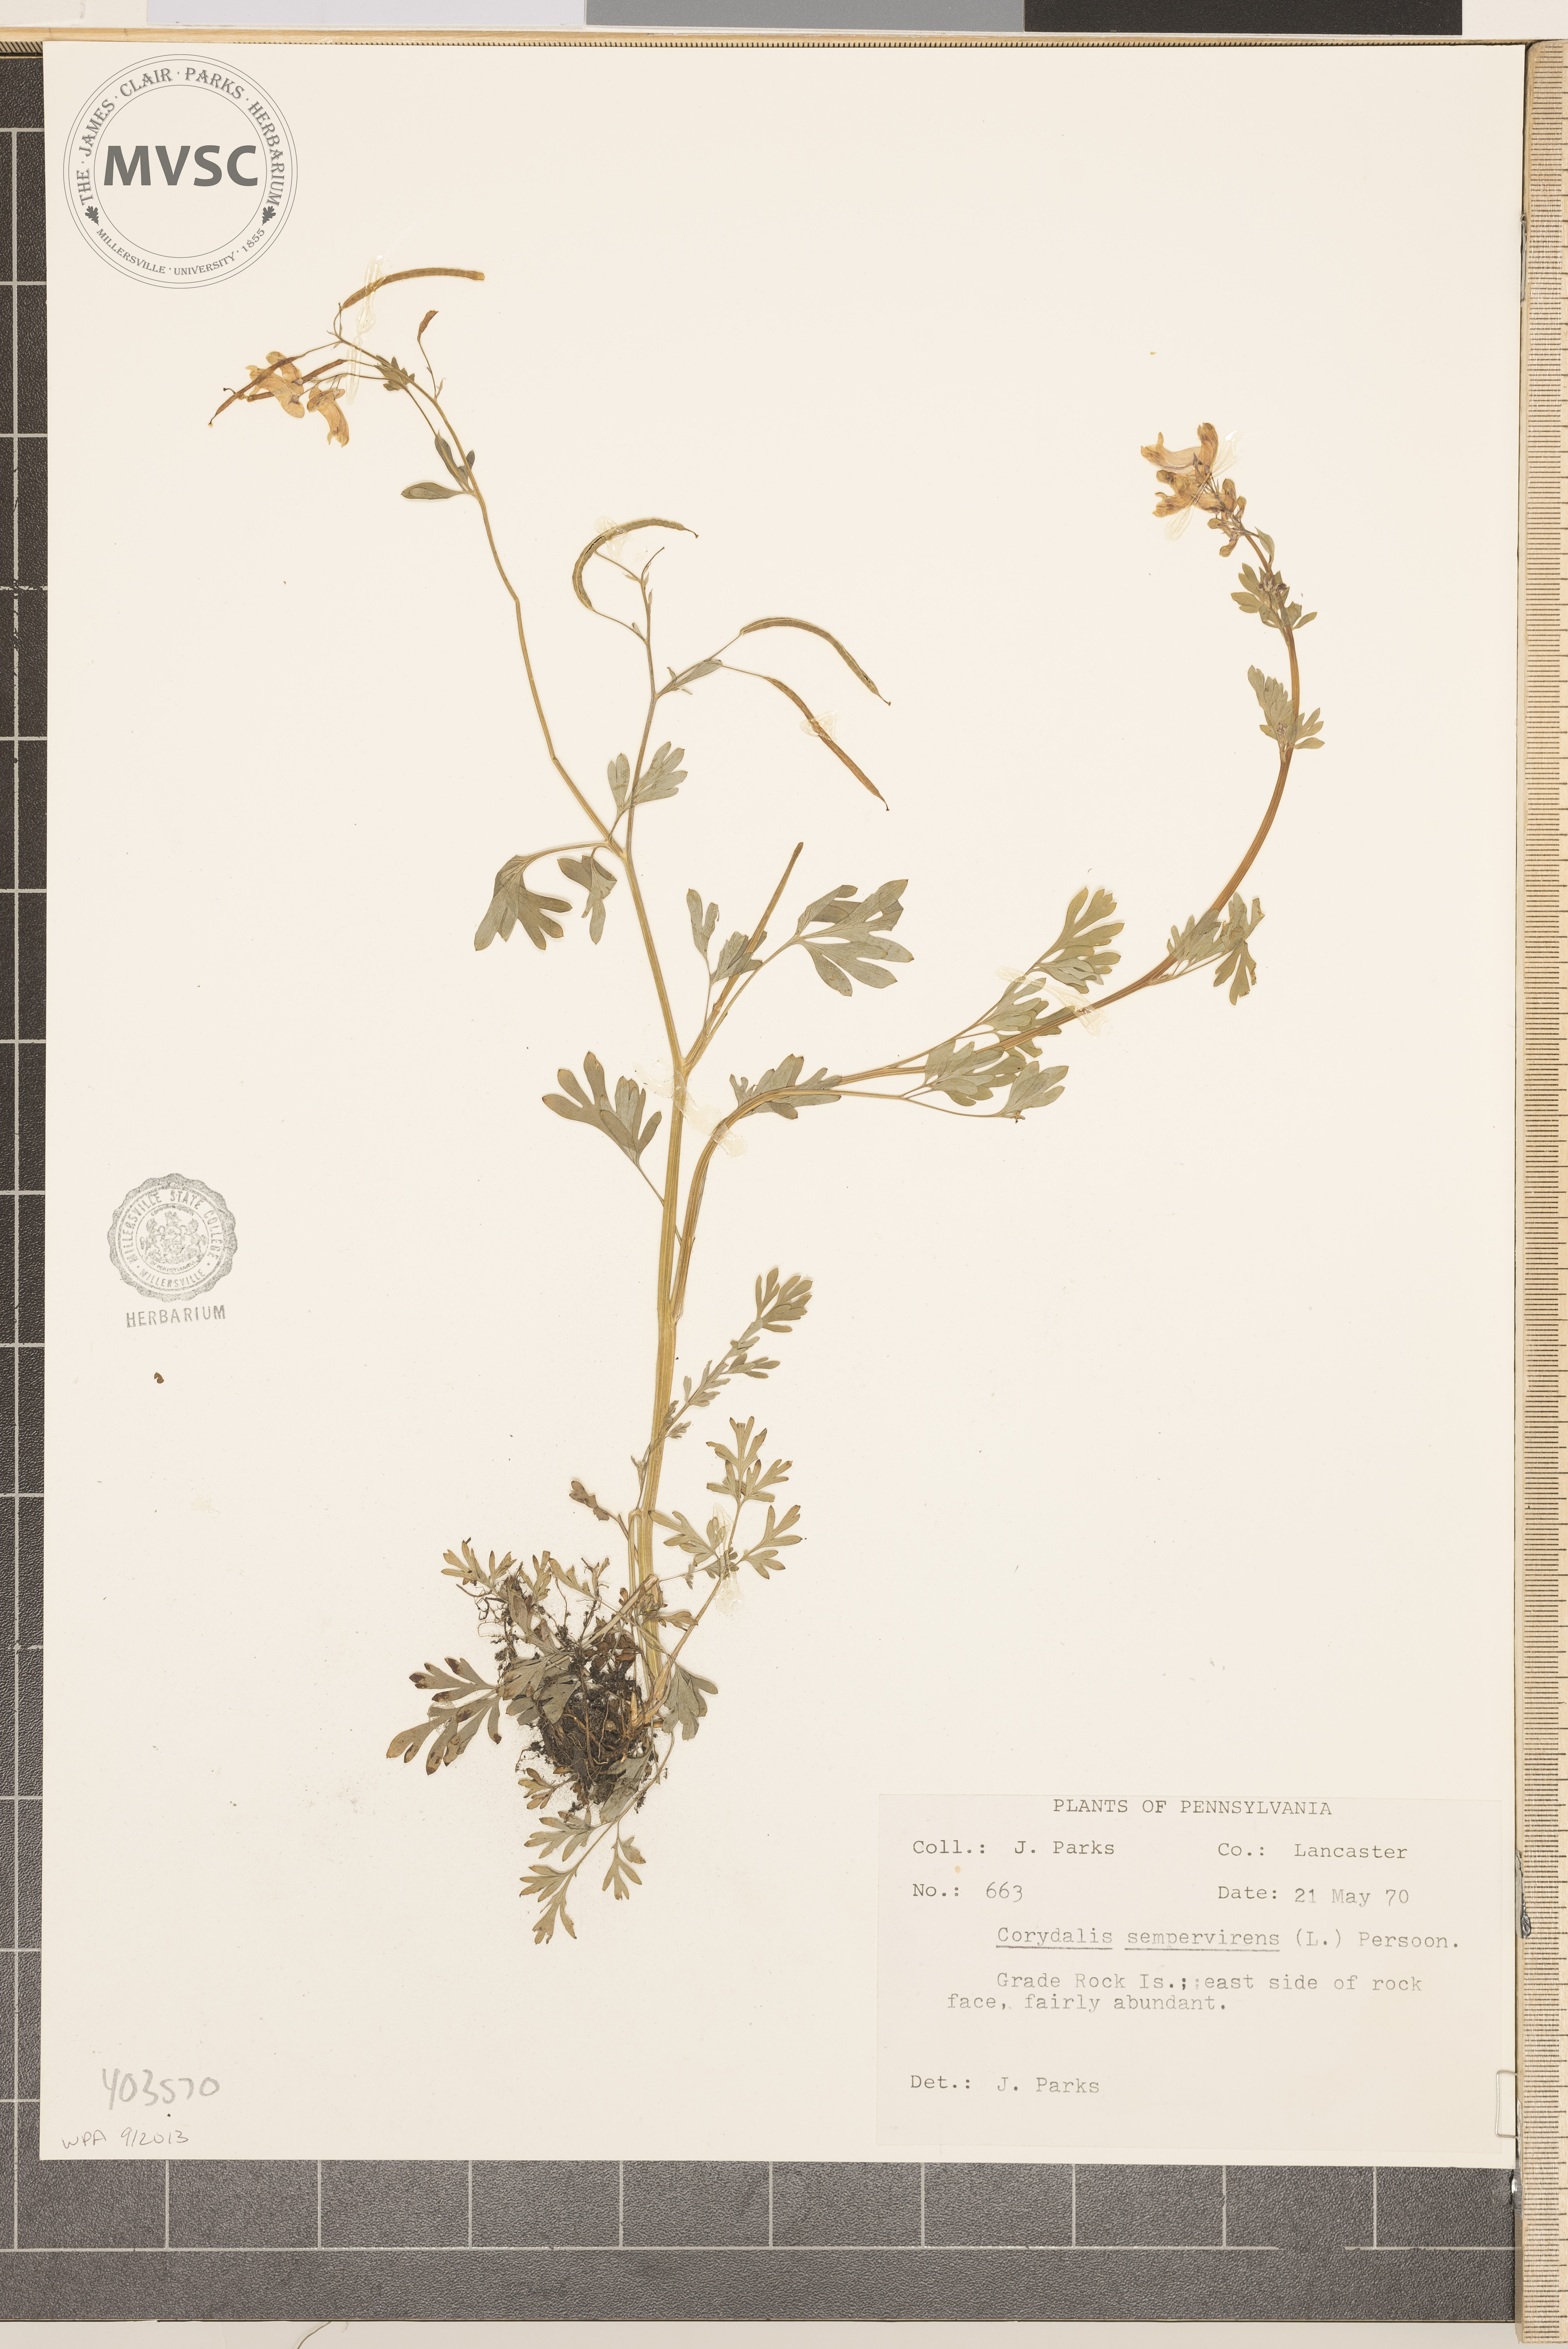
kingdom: Plantae
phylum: Tracheophyta
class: Magnoliopsida
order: Ranunculales
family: Papaveraceae
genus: Capnoides
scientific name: Capnoides sempervirens
